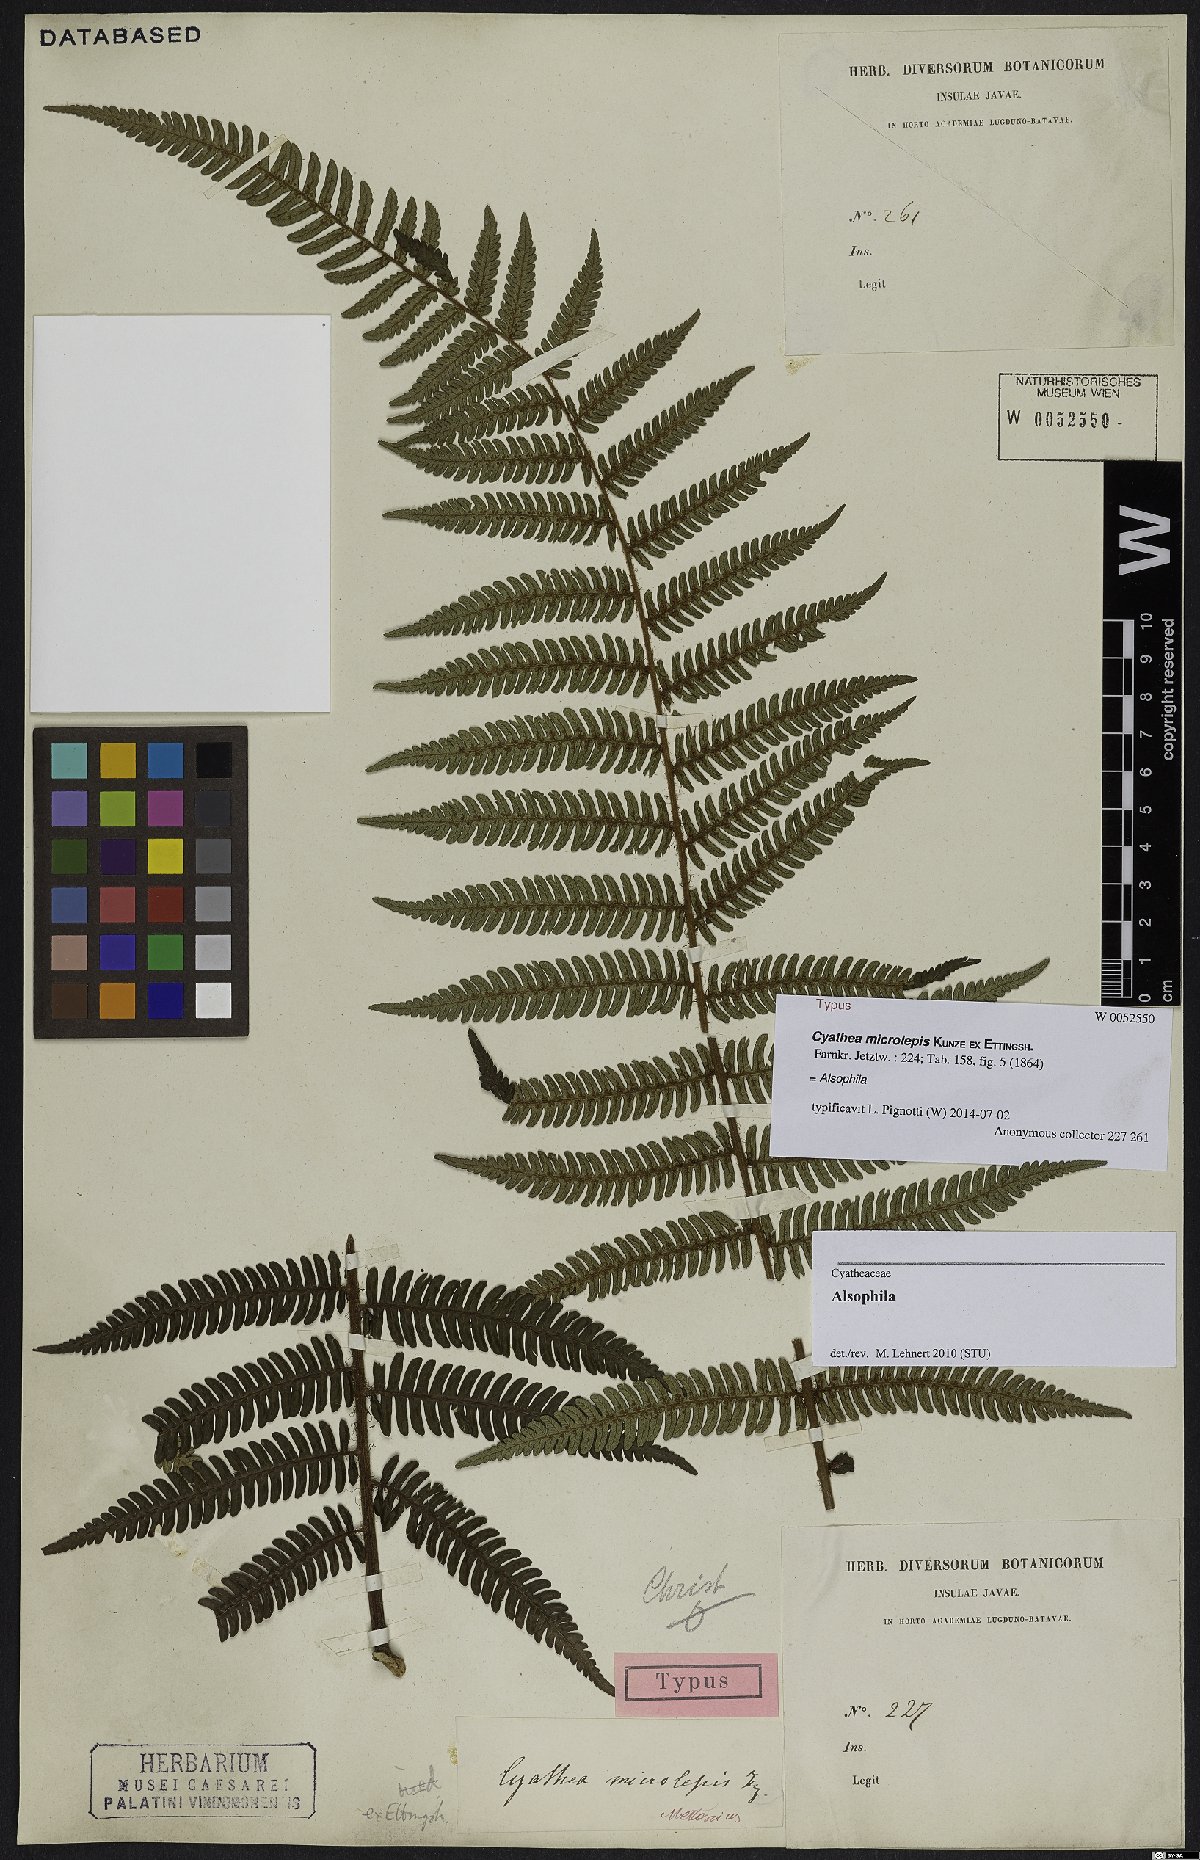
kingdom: Plantae
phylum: Tracheophyta
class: Polypodiopsida
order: Cyatheales
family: Cyatheaceae
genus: Alsophila
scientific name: Alsophila
